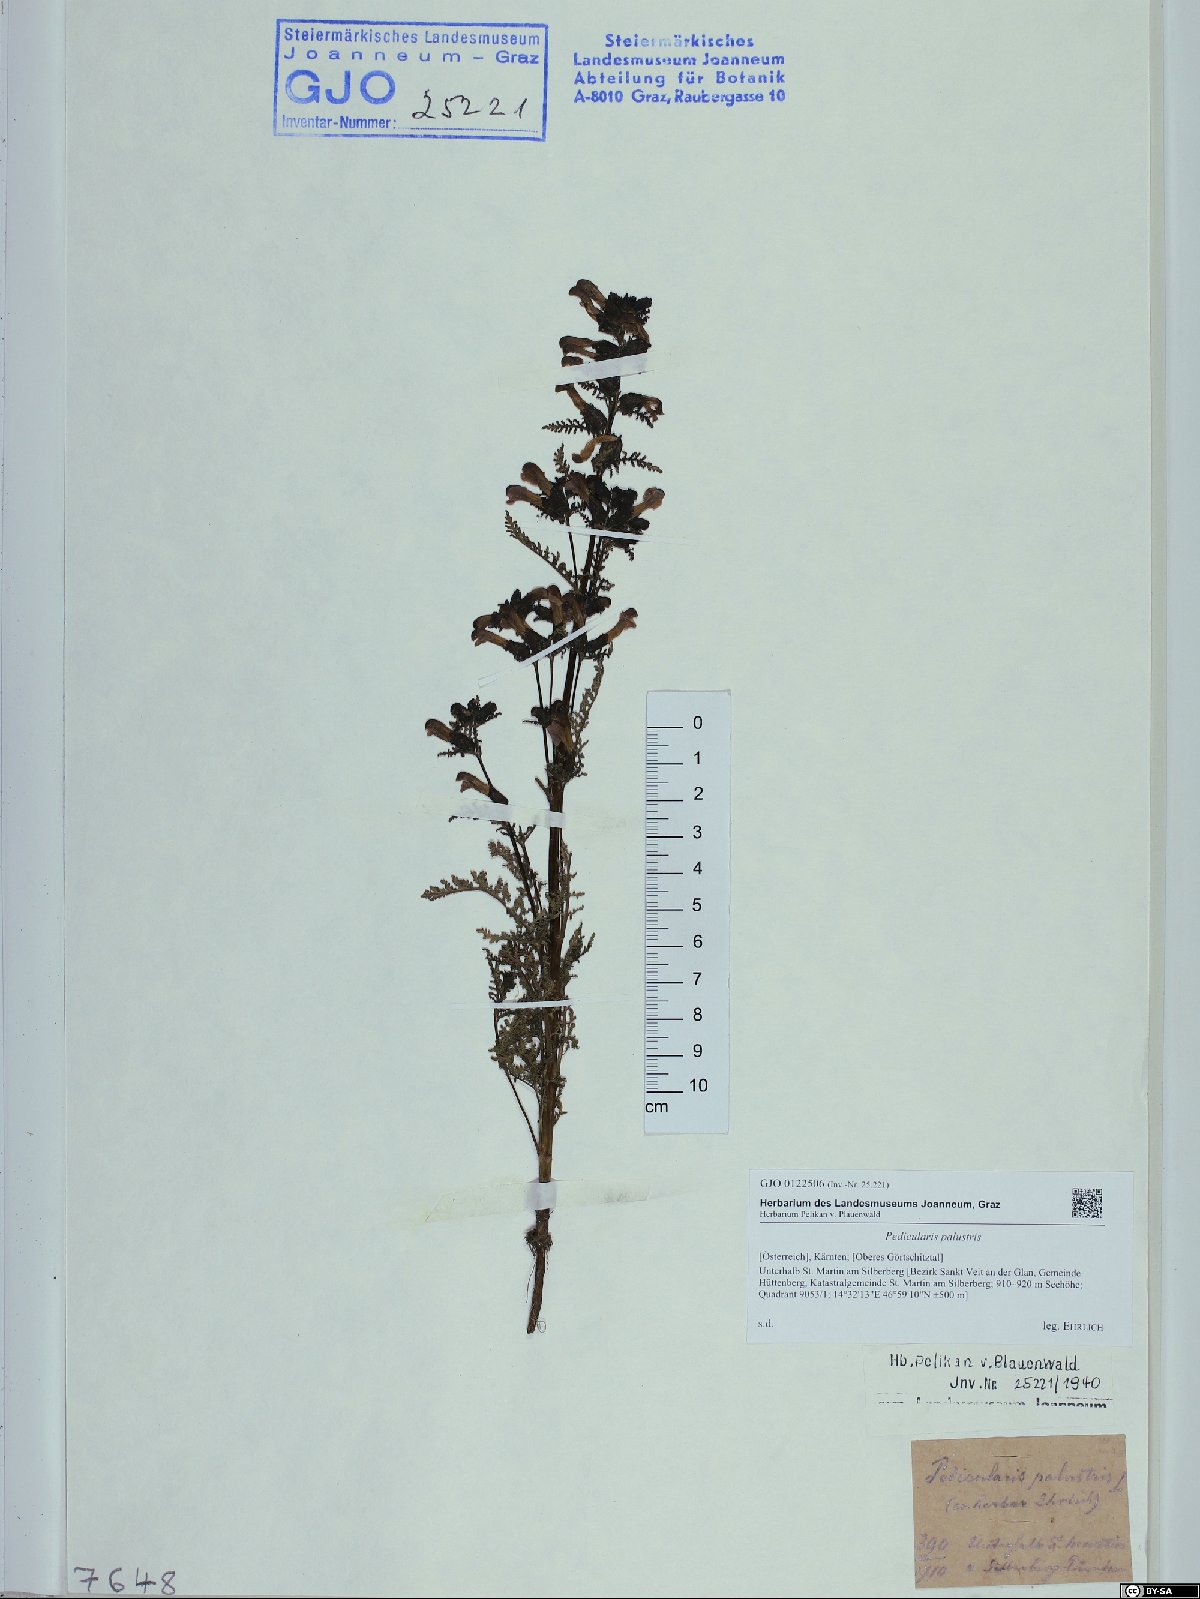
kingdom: Plantae
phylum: Tracheophyta
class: Magnoliopsida
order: Lamiales
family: Orobanchaceae
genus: Pedicularis
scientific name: Pedicularis palustris
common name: Marsh lousewort
